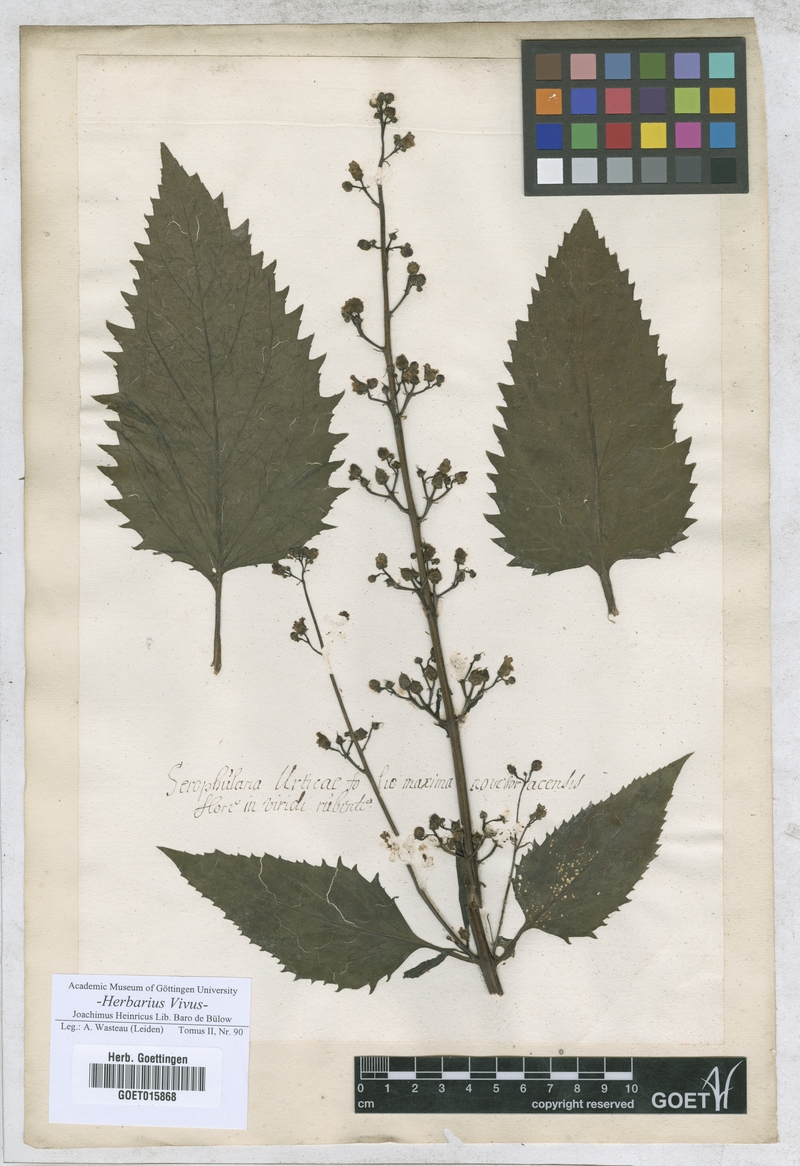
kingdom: Plantae
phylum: Tracheophyta
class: Magnoliopsida
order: Lamiales
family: Scrophulariaceae
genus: Scrophularia
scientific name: Scrophularia peregrina
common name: Mediterranean figwort
